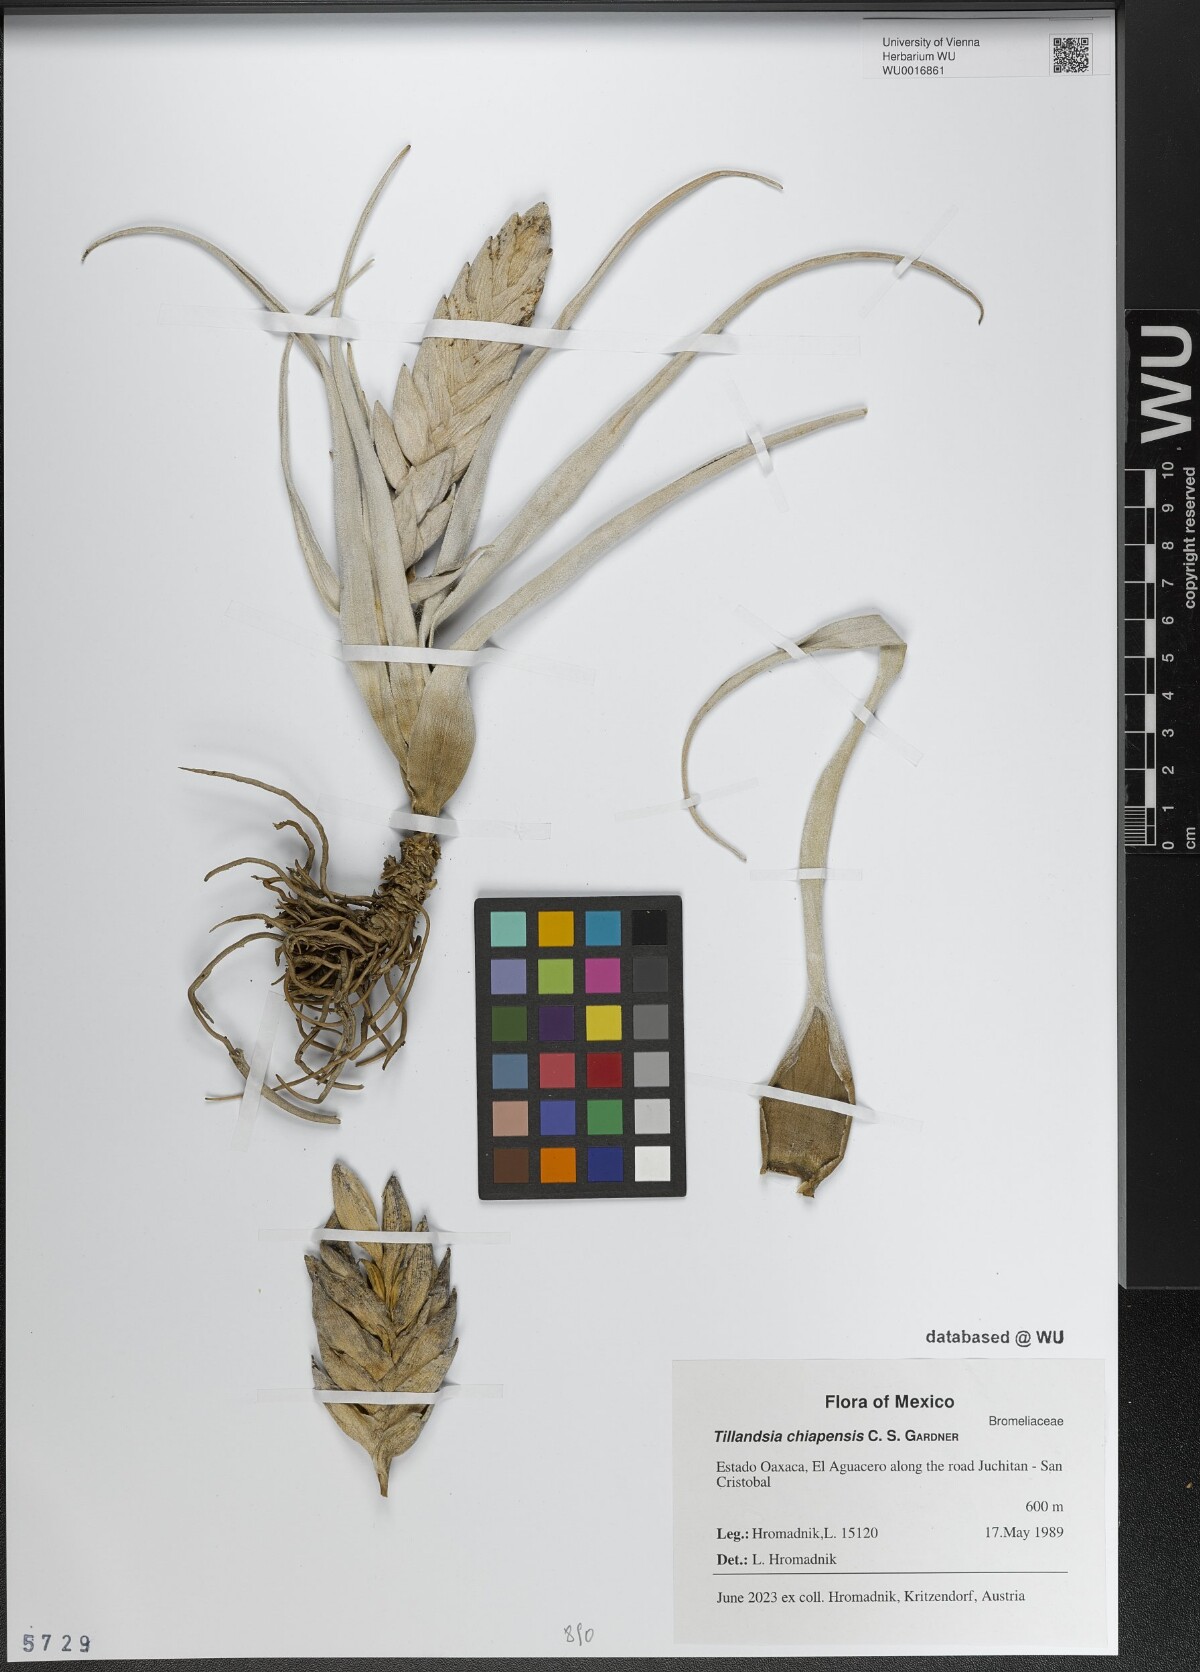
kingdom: Plantae
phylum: Tracheophyta
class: Liliopsida
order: Poales
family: Bromeliaceae
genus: Tillandsia
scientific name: Tillandsia chiapensis
